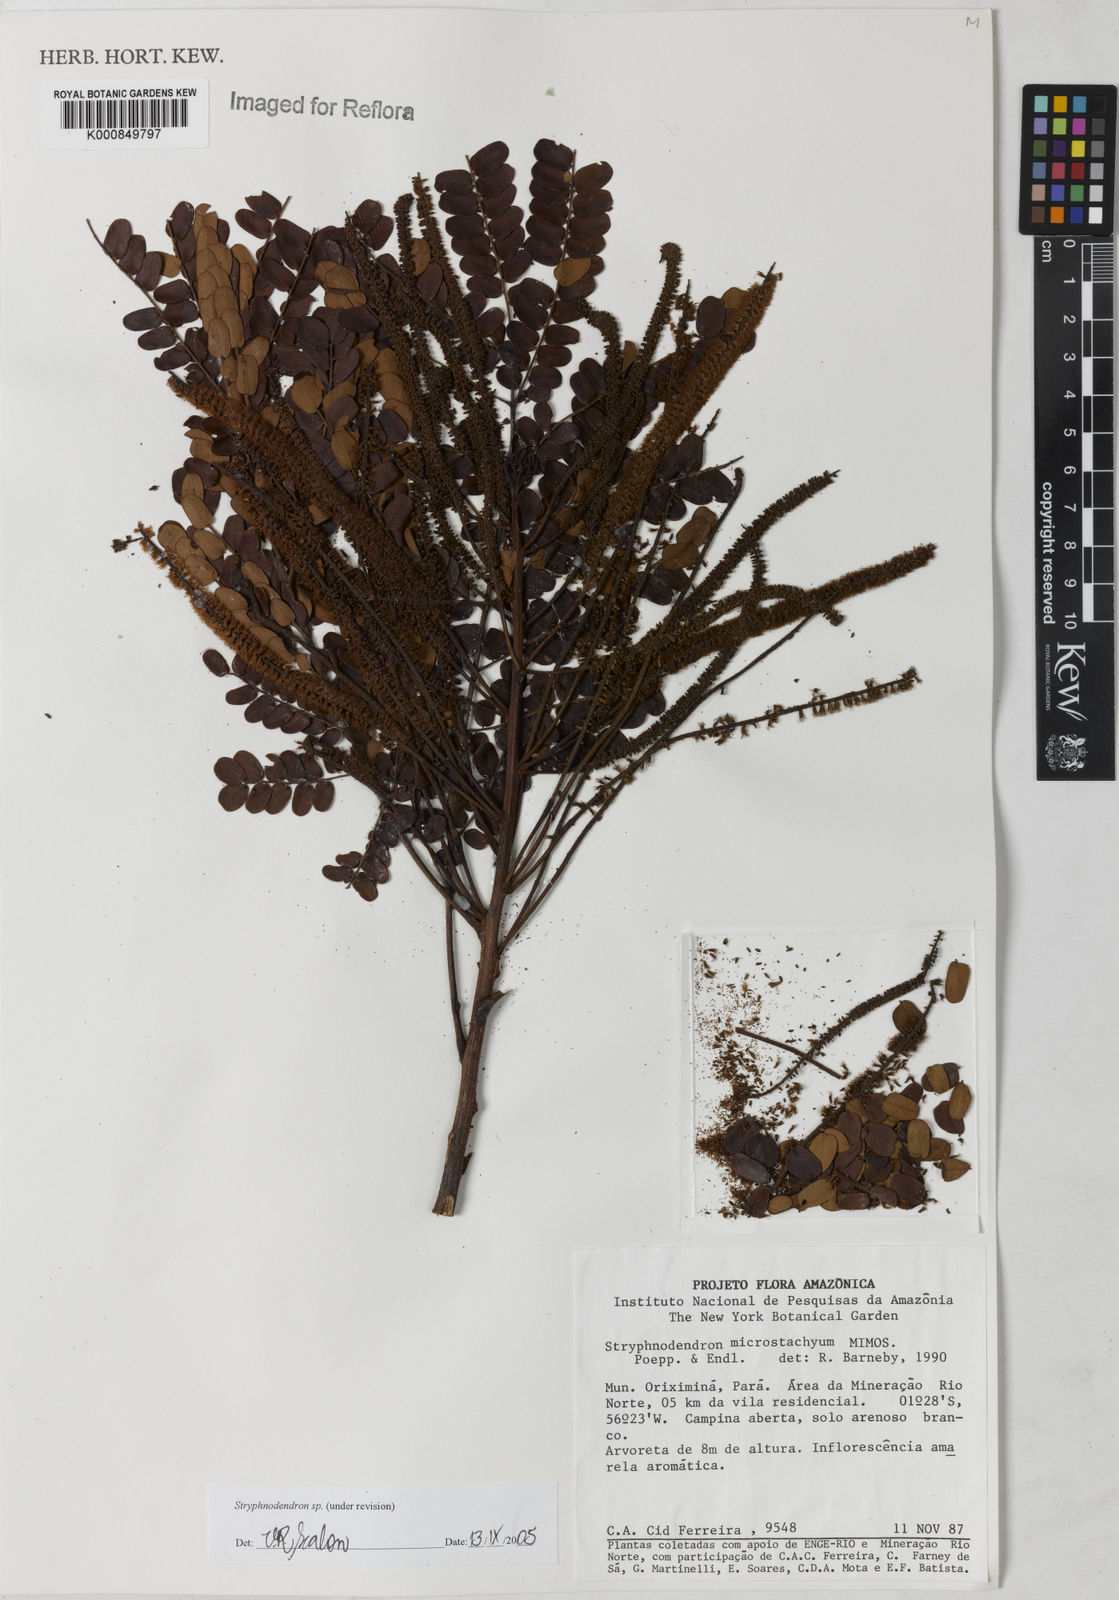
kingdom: Plantae
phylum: Tracheophyta
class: Magnoliopsida
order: Fabales
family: Fabaceae
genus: Stryphnodendron
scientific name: Stryphnodendron
